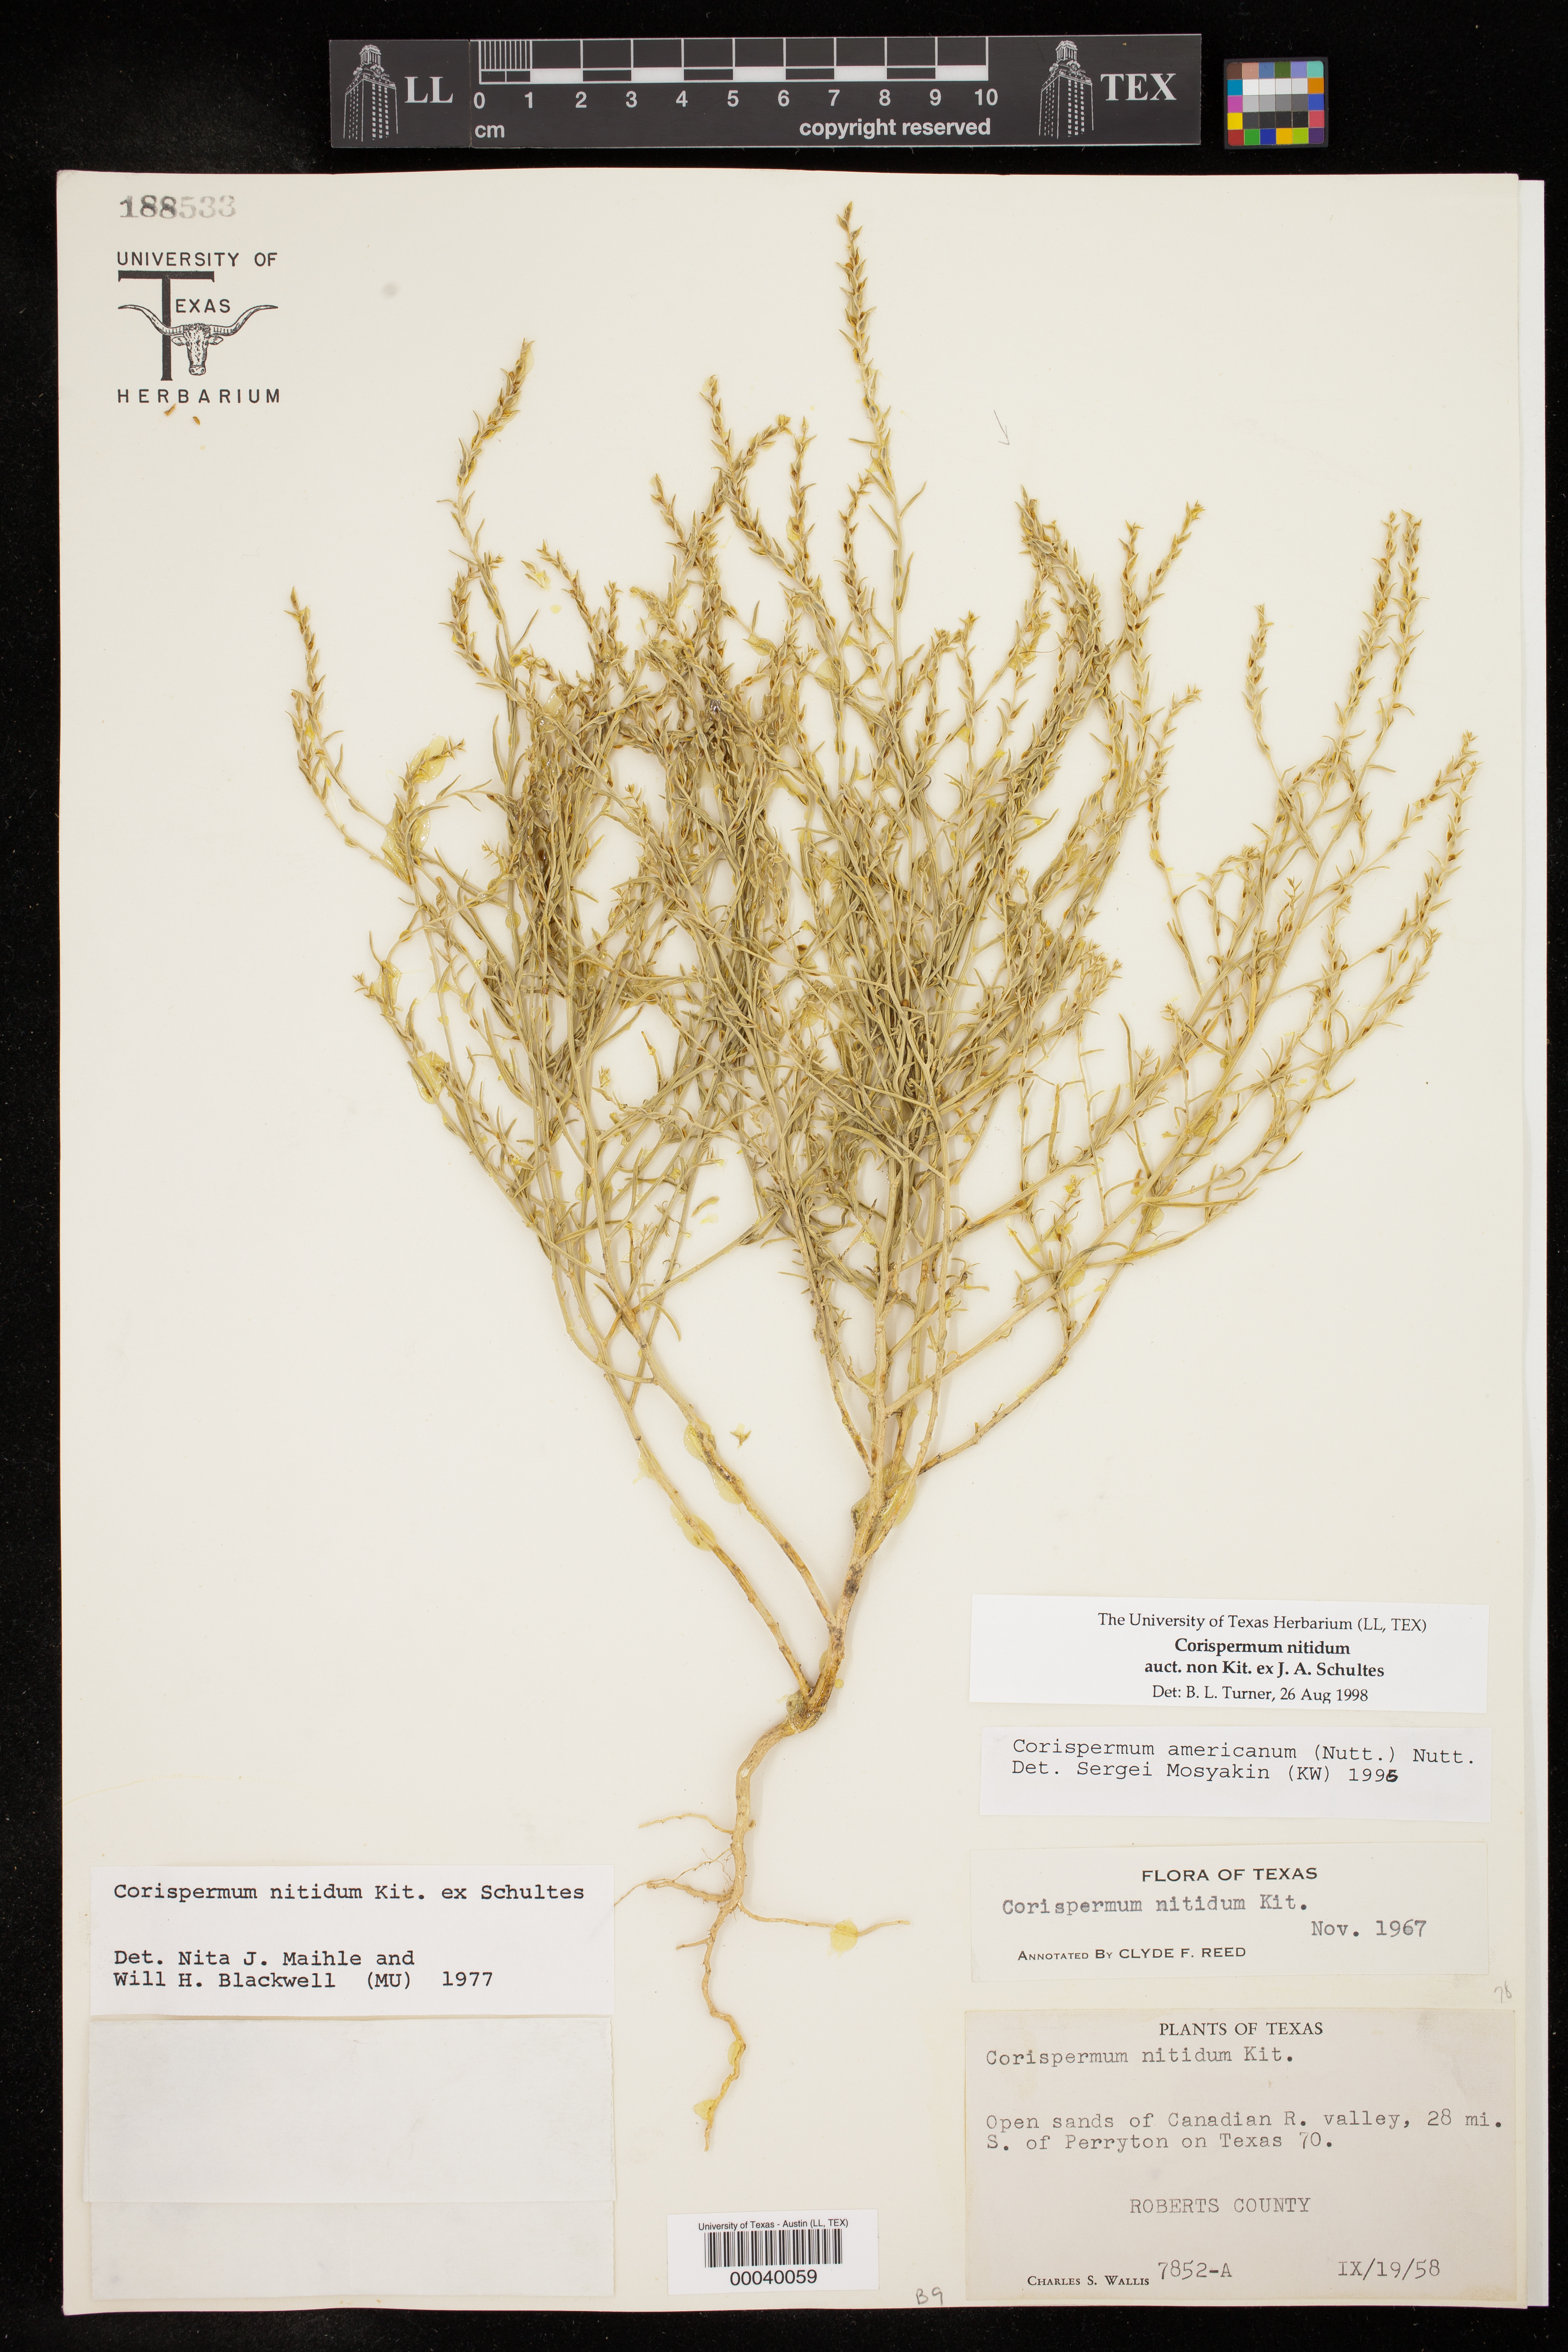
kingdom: Plantae
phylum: Tracheophyta
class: Magnoliopsida
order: Caryophyllales
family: Amaranthaceae
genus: Corispermum
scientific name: Corispermum nitidum
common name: Bugseed
